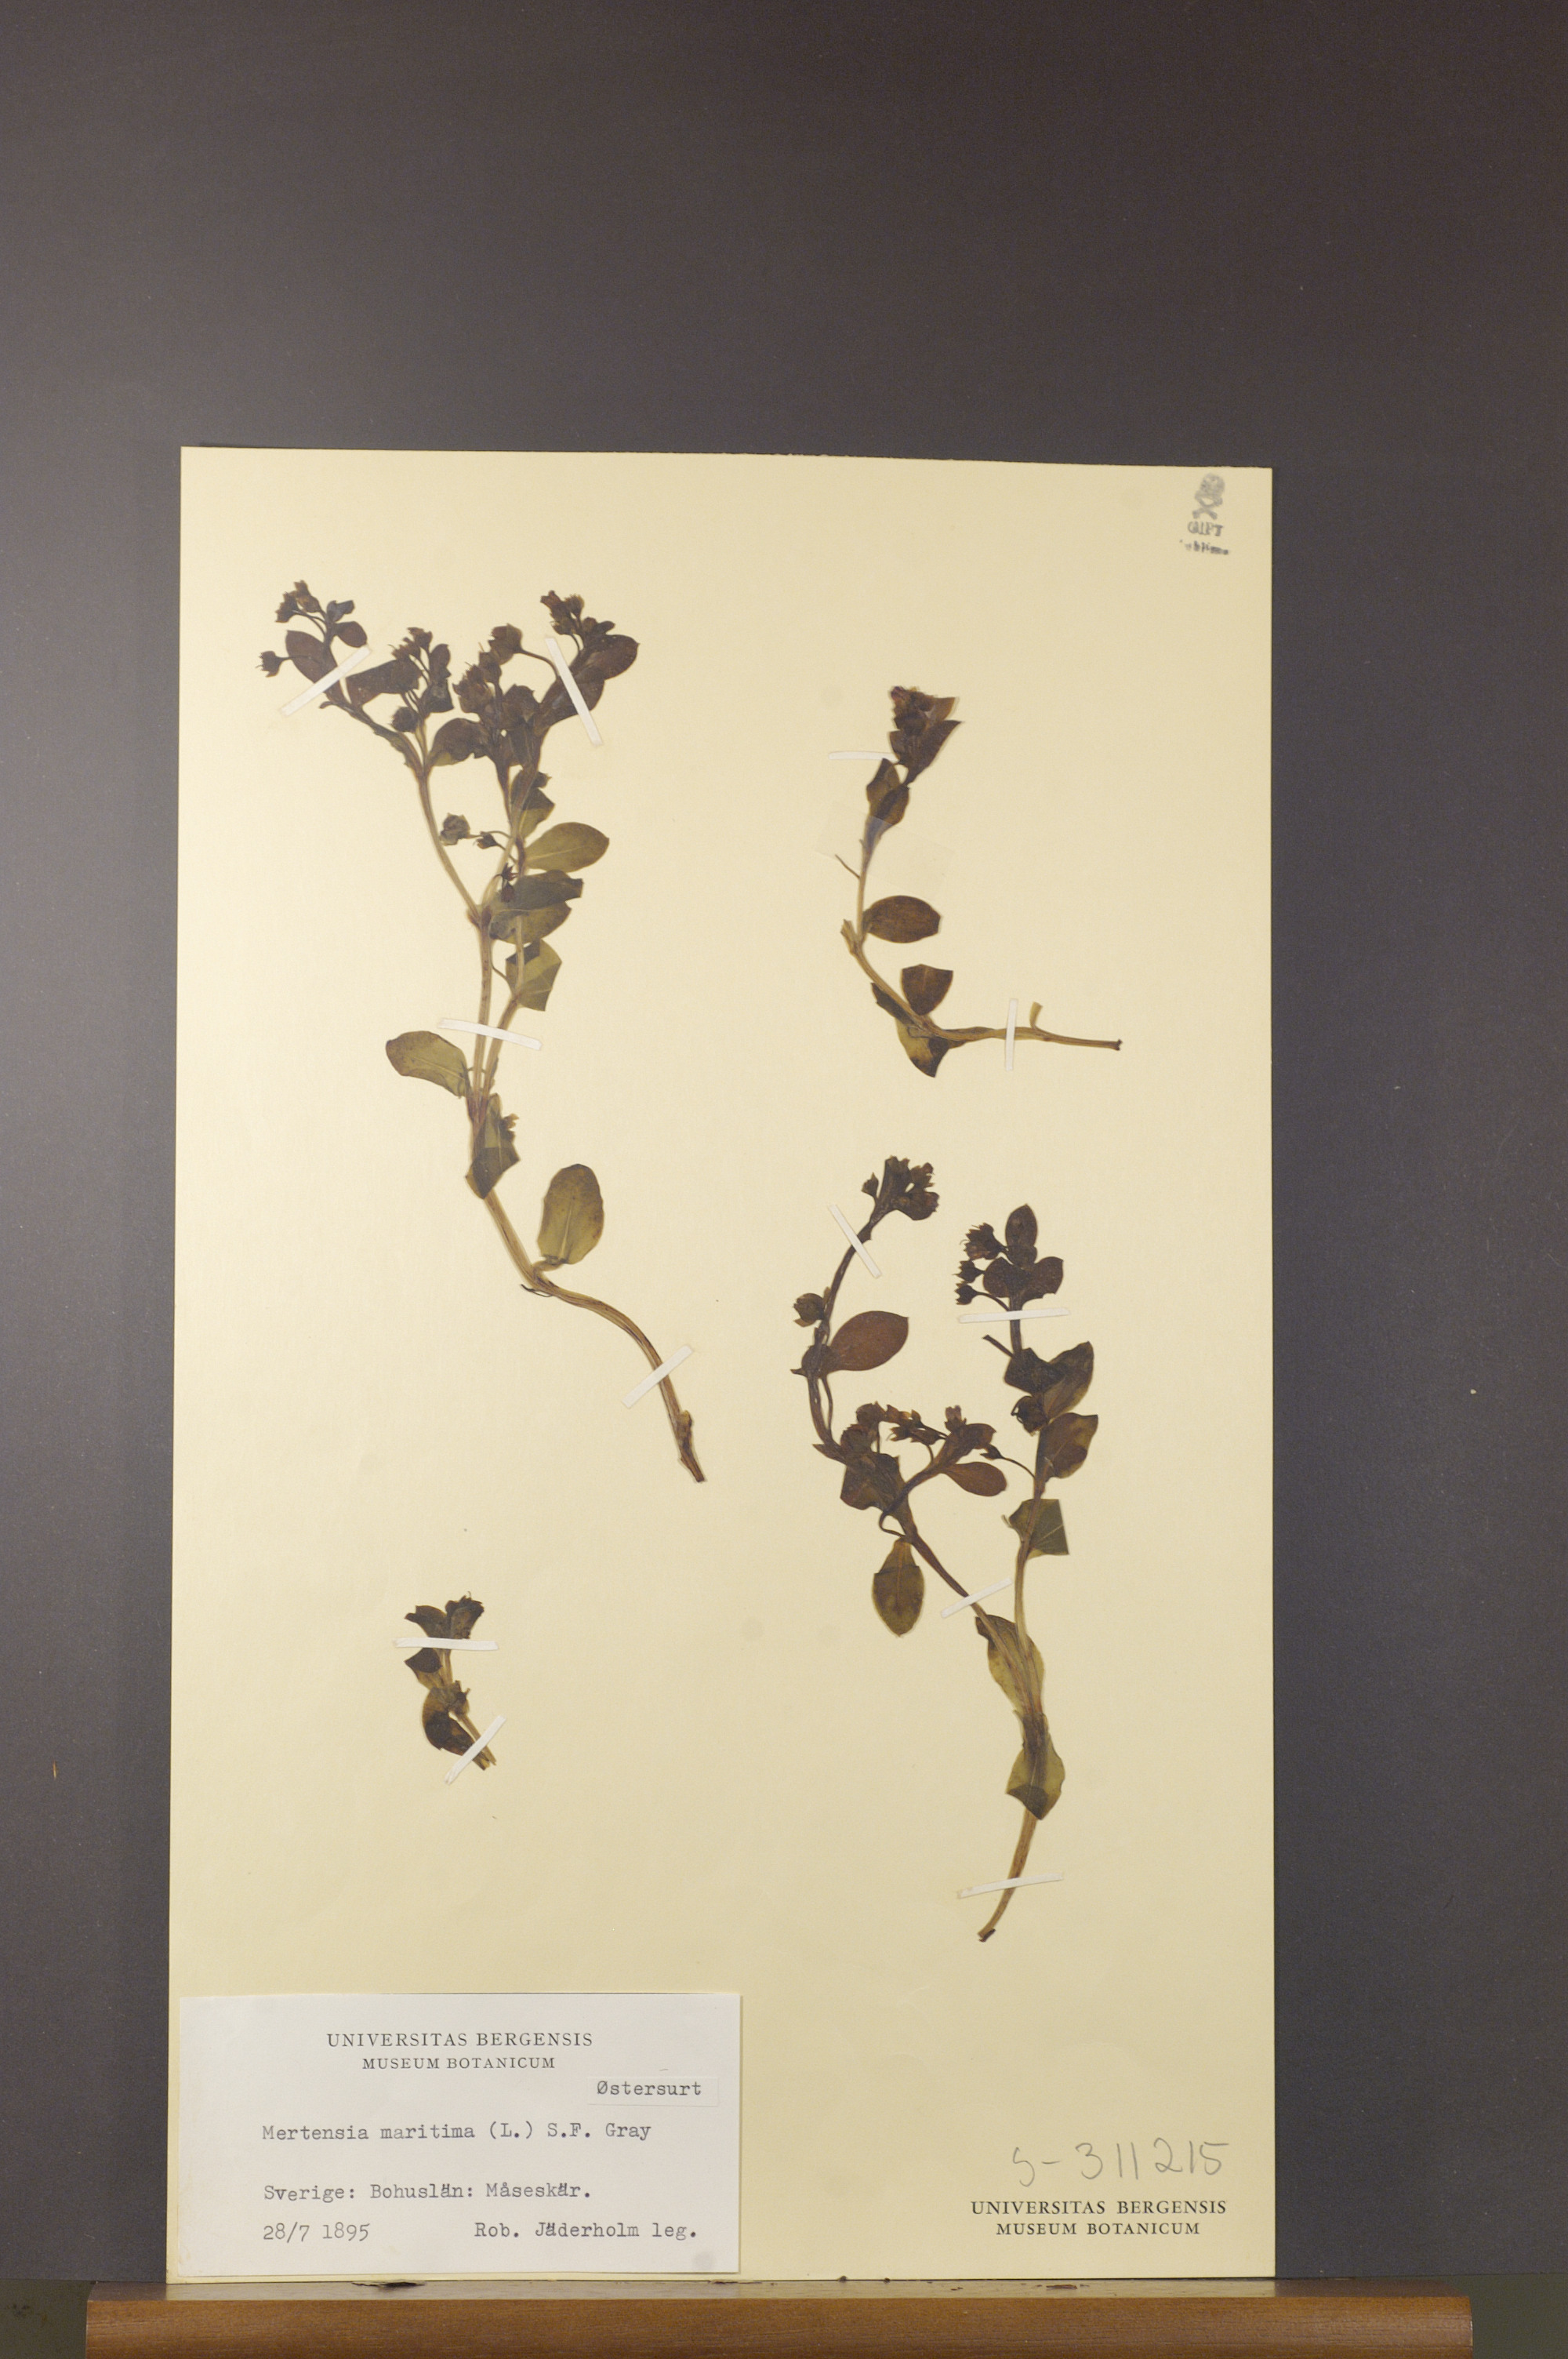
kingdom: Plantae
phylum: Tracheophyta
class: Magnoliopsida
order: Boraginales
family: Boraginaceae
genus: Mertensia
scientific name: Mertensia maritima
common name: Oysterplant
